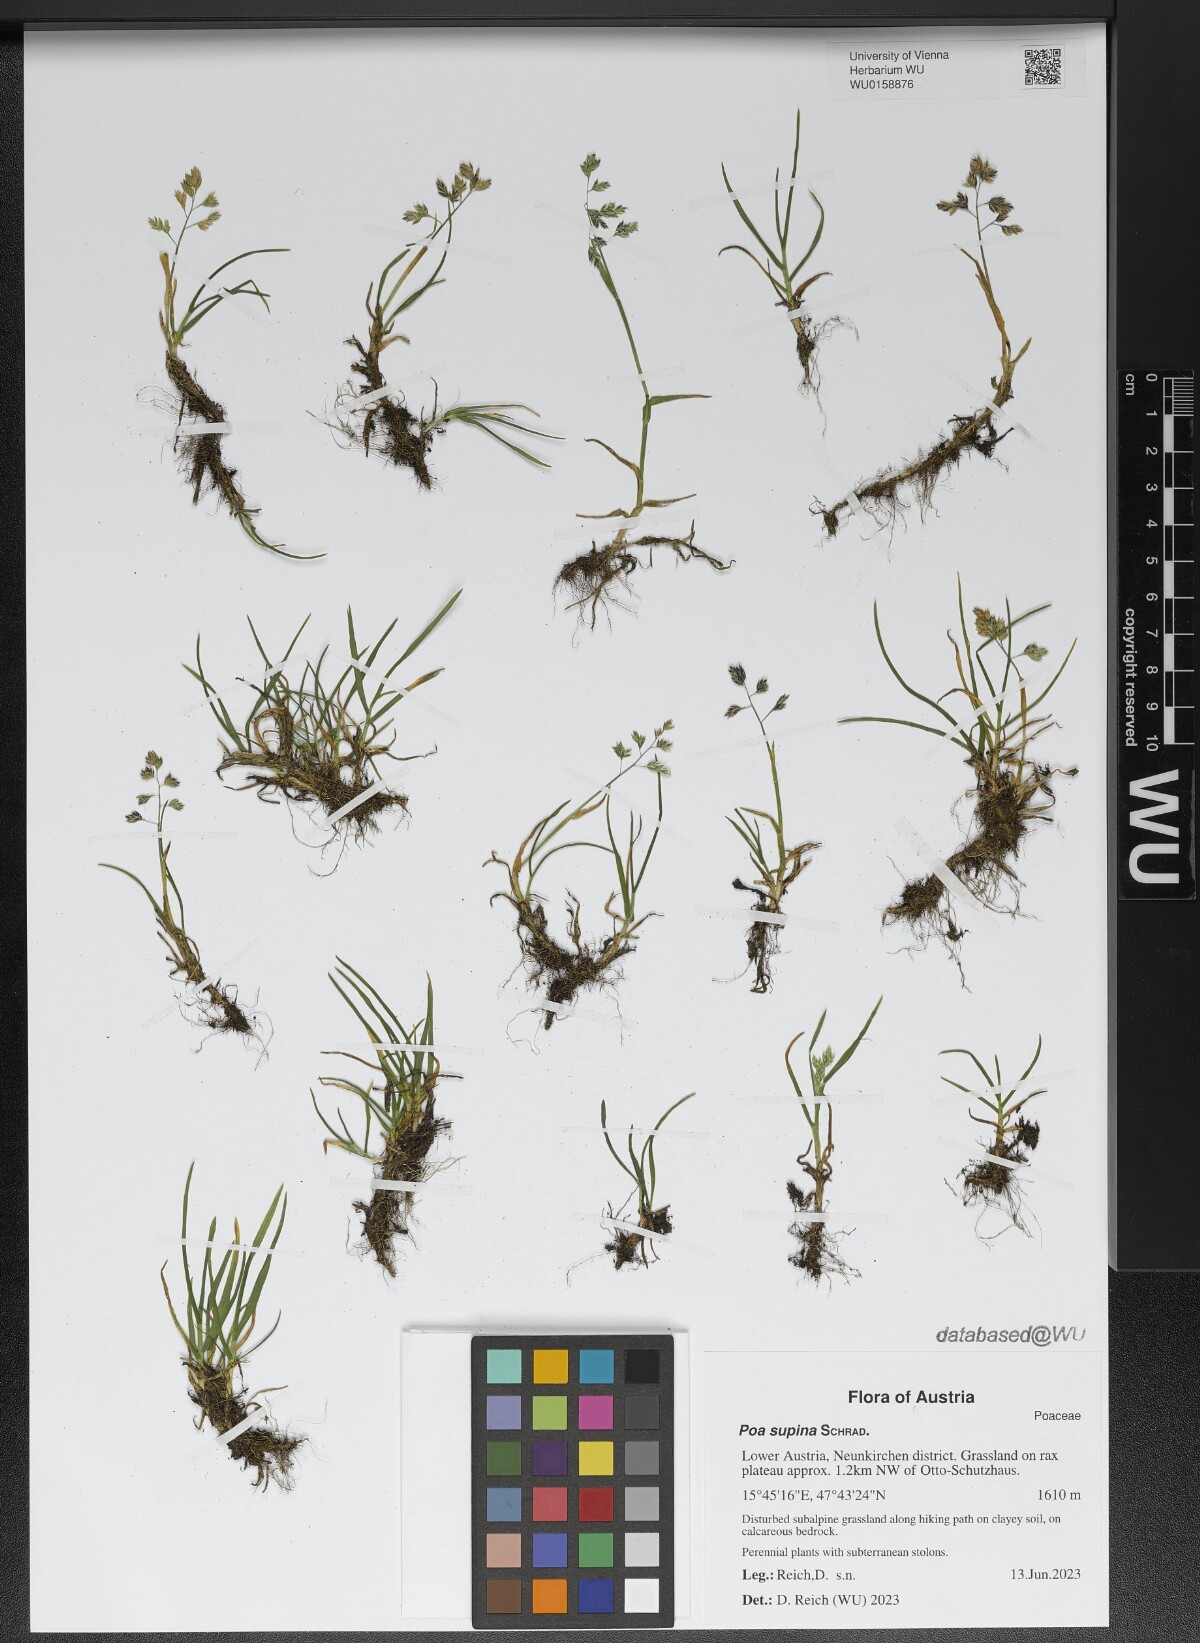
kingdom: Plantae
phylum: Tracheophyta
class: Liliopsida
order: Poales
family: Poaceae
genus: Poa
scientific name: Poa supina
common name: Supina bluegrass
